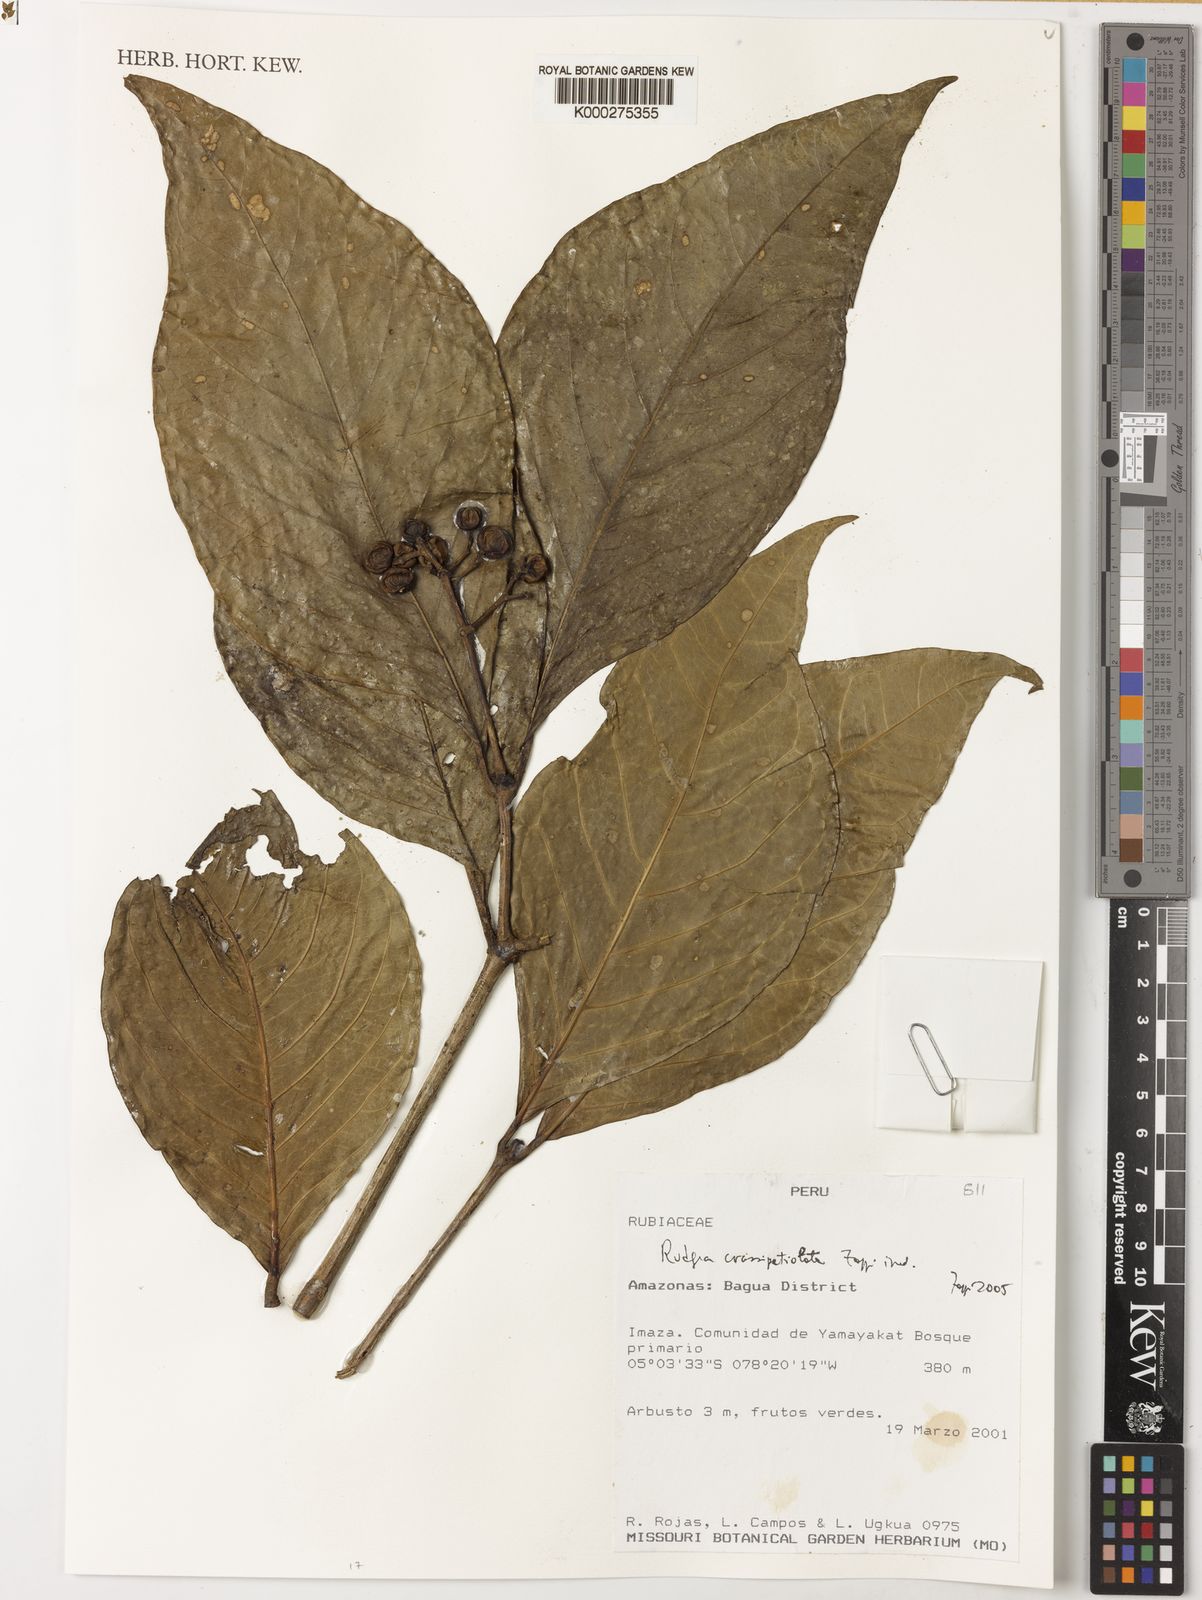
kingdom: Plantae
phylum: Tracheophyta
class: Magnoliopsida
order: Gentianales
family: Rubiaceae
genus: Rudgea
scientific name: Rudgea crassipetiolata
